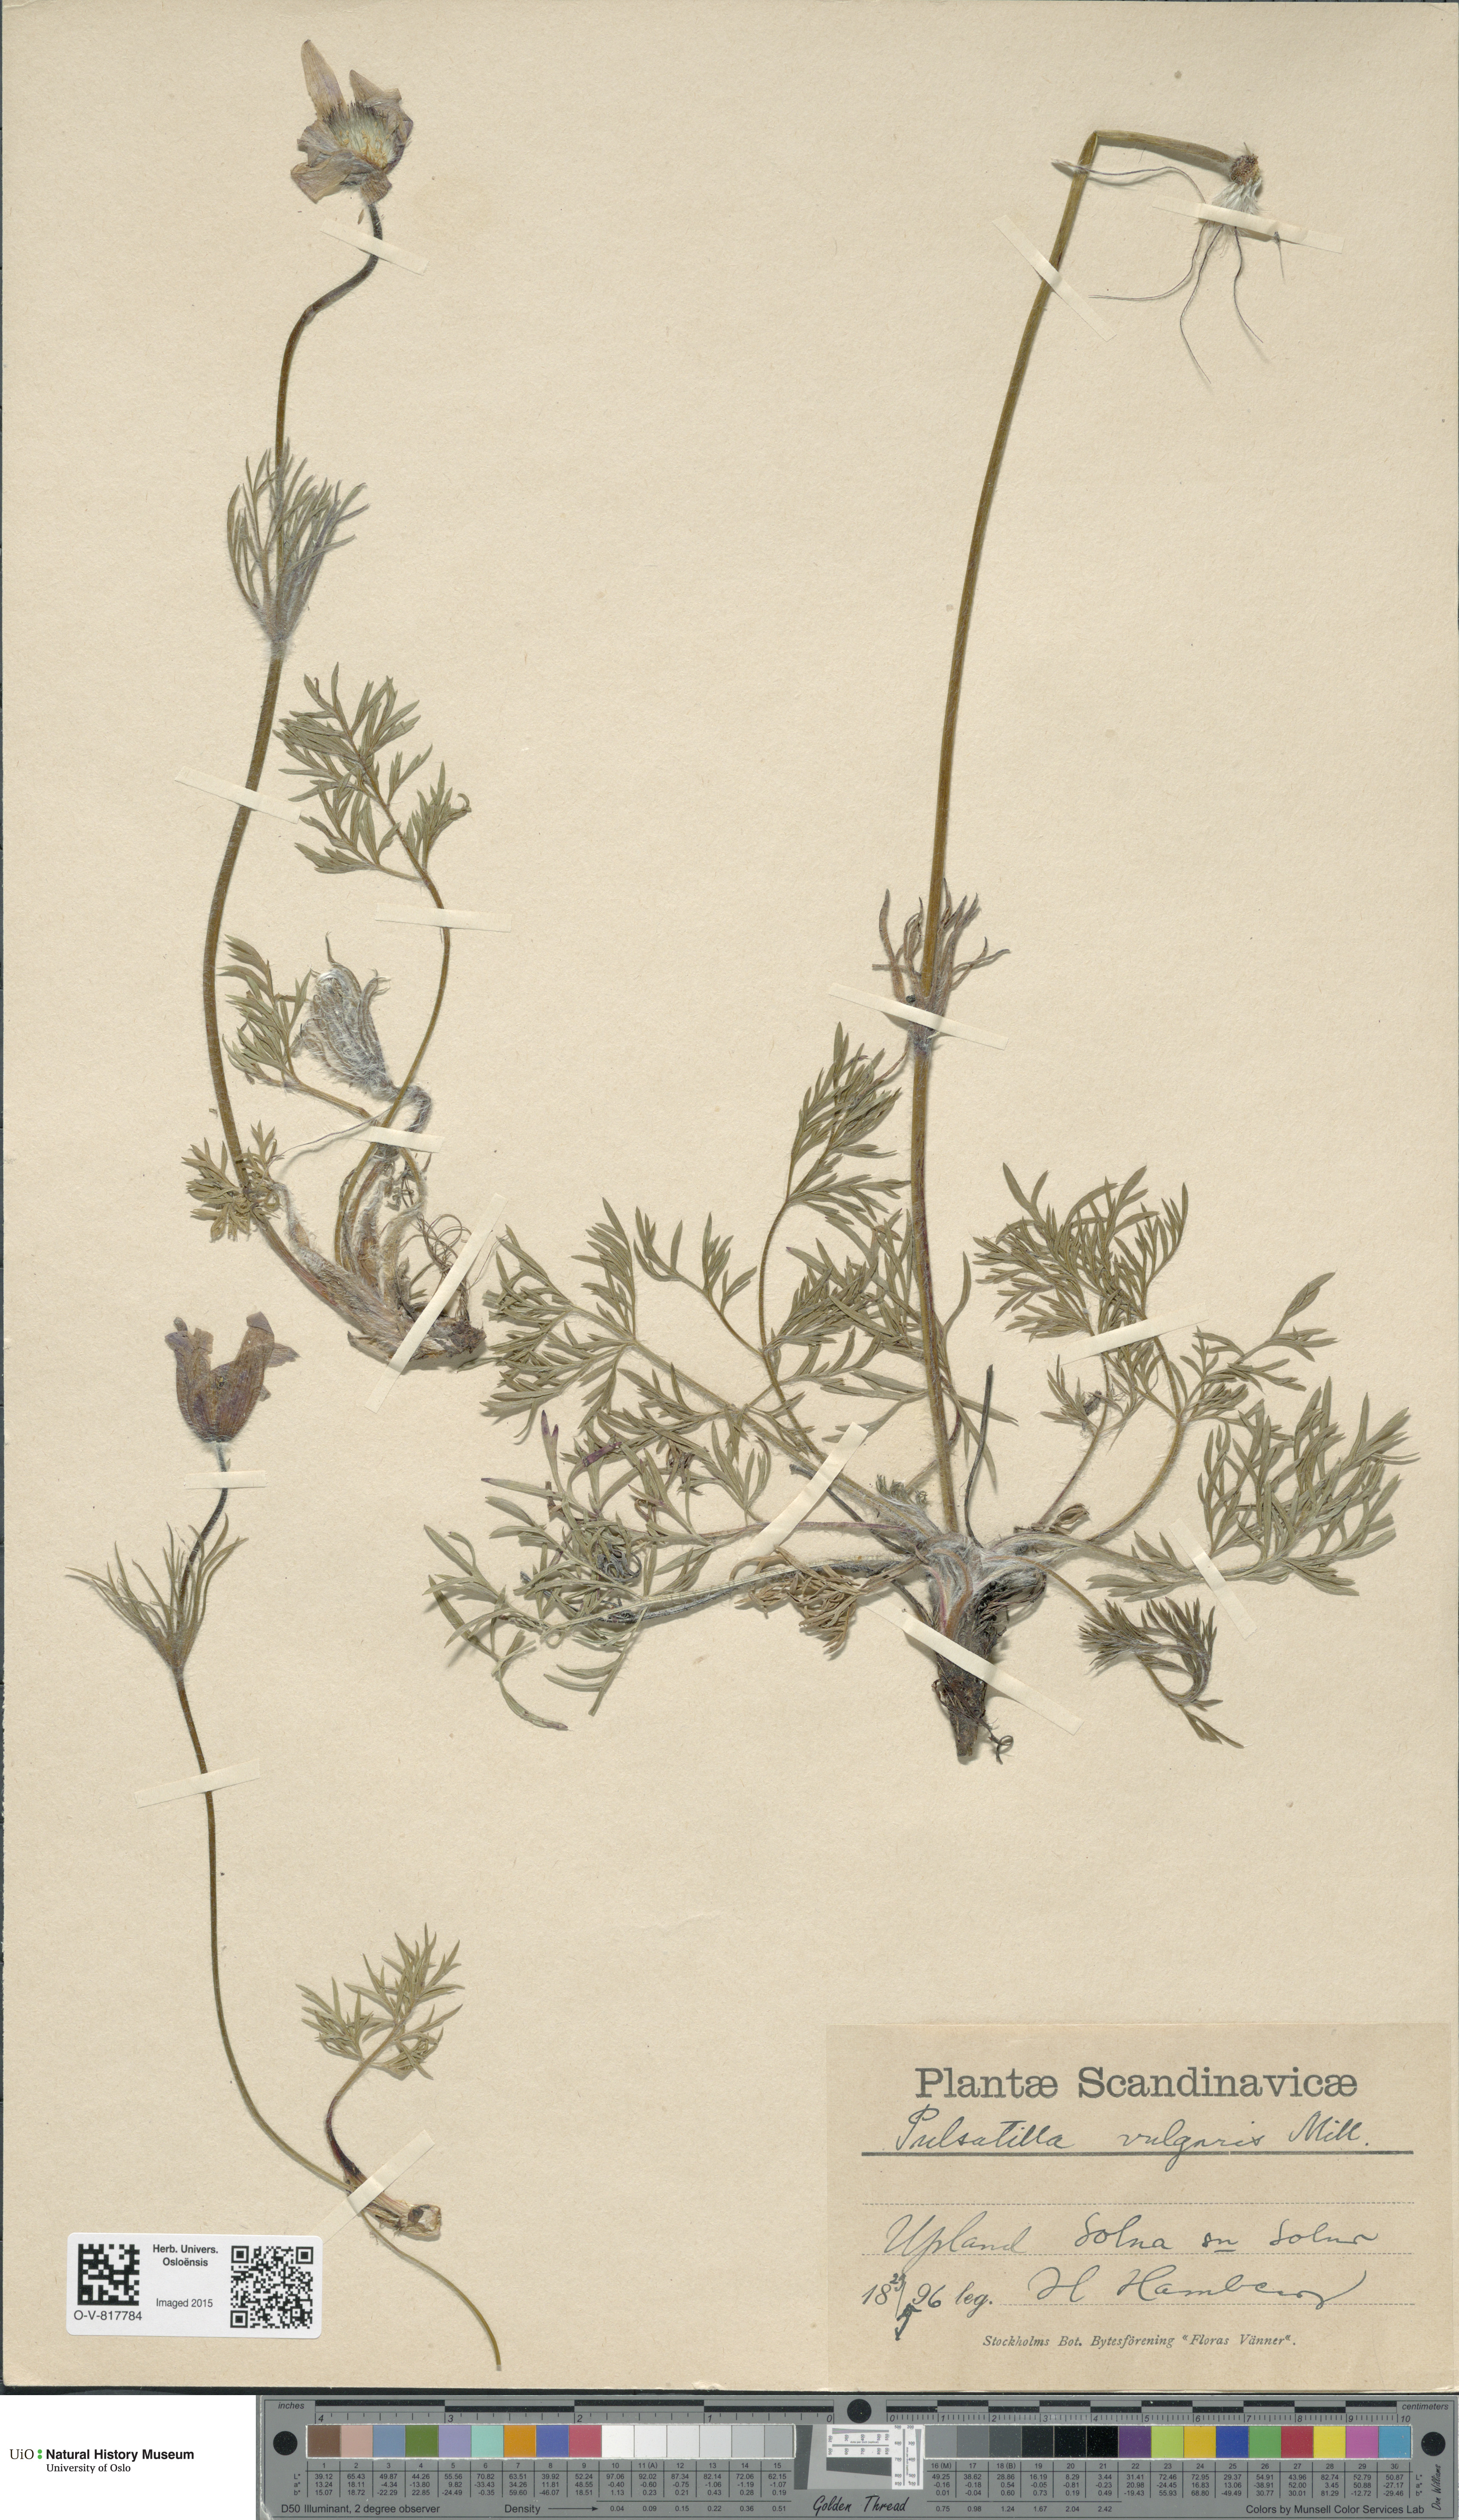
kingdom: Plantae
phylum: Tracheophyta
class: Magnoliopsida
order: Ranunculales
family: Ranunculaceae
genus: Pulsatilla
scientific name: Pulsatilla vulgaris
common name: Pasqueflower
